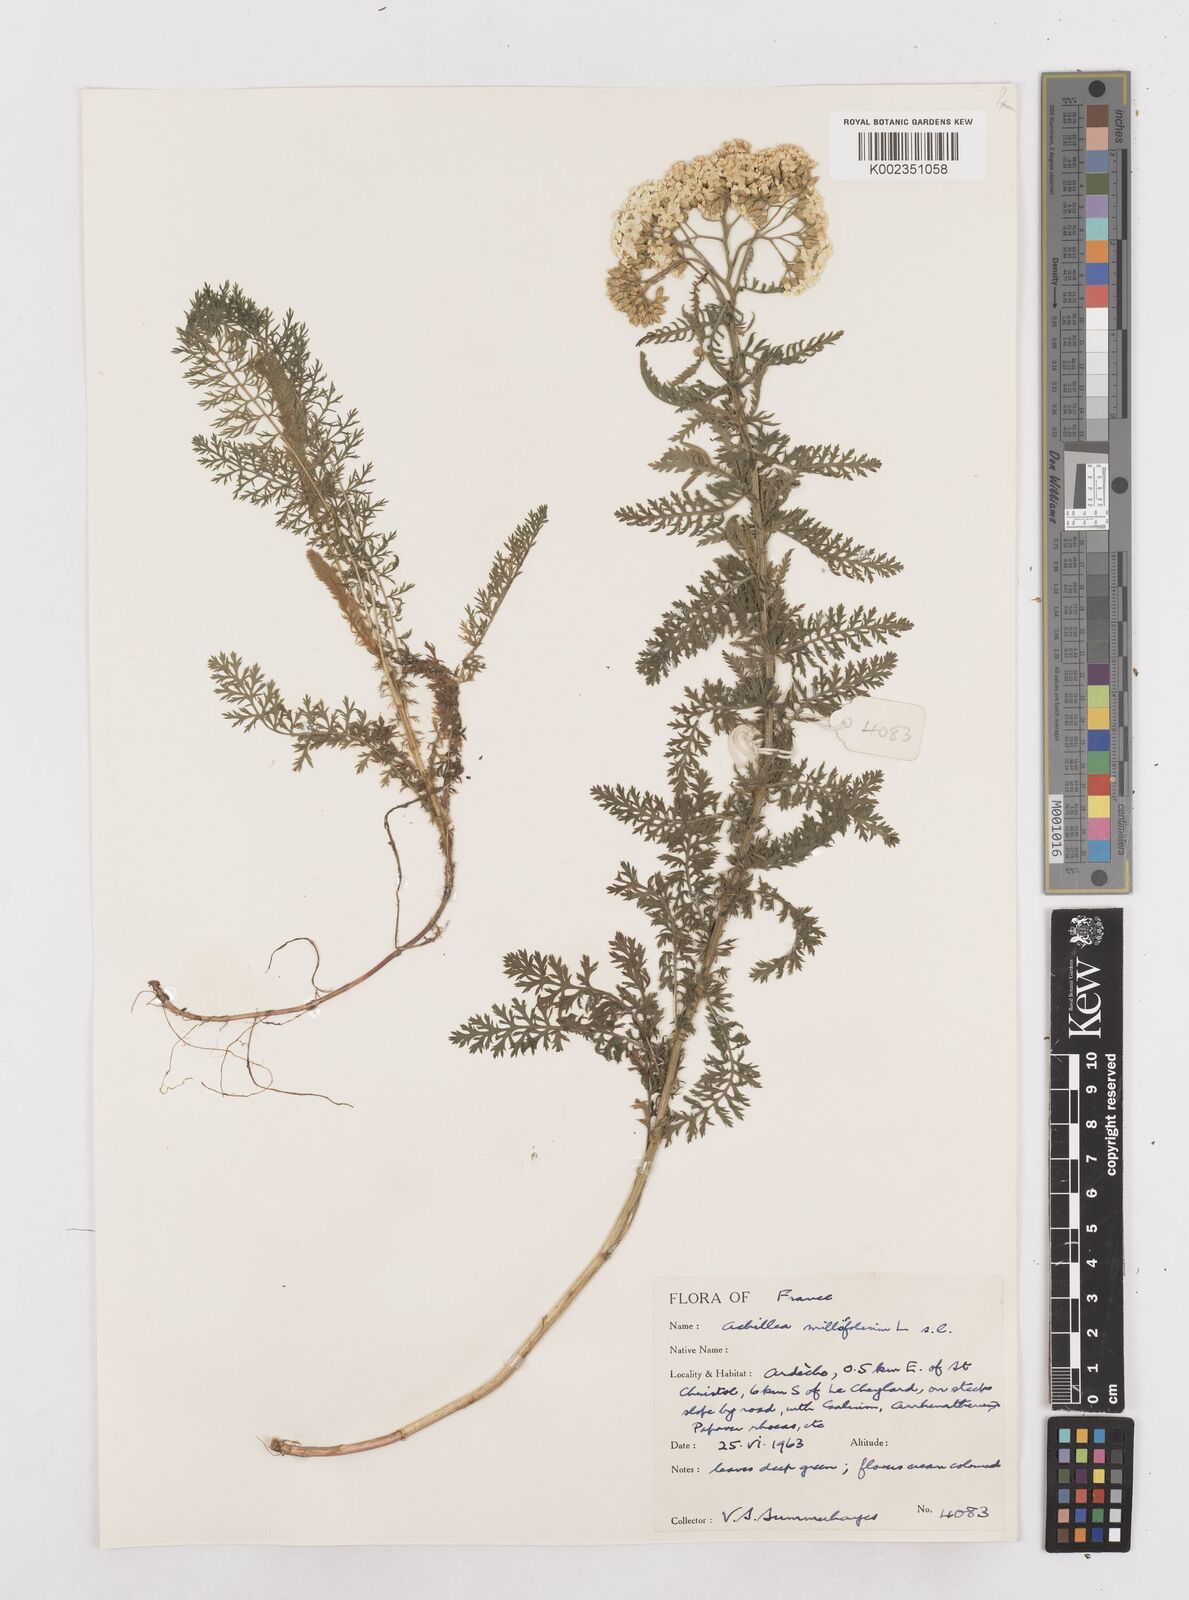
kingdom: Plantae
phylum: Tracheophyta
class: Magnoliopsida
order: Asterales
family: Asteraceae
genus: Achillea
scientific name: Achillea millefolium
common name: Yarrow
